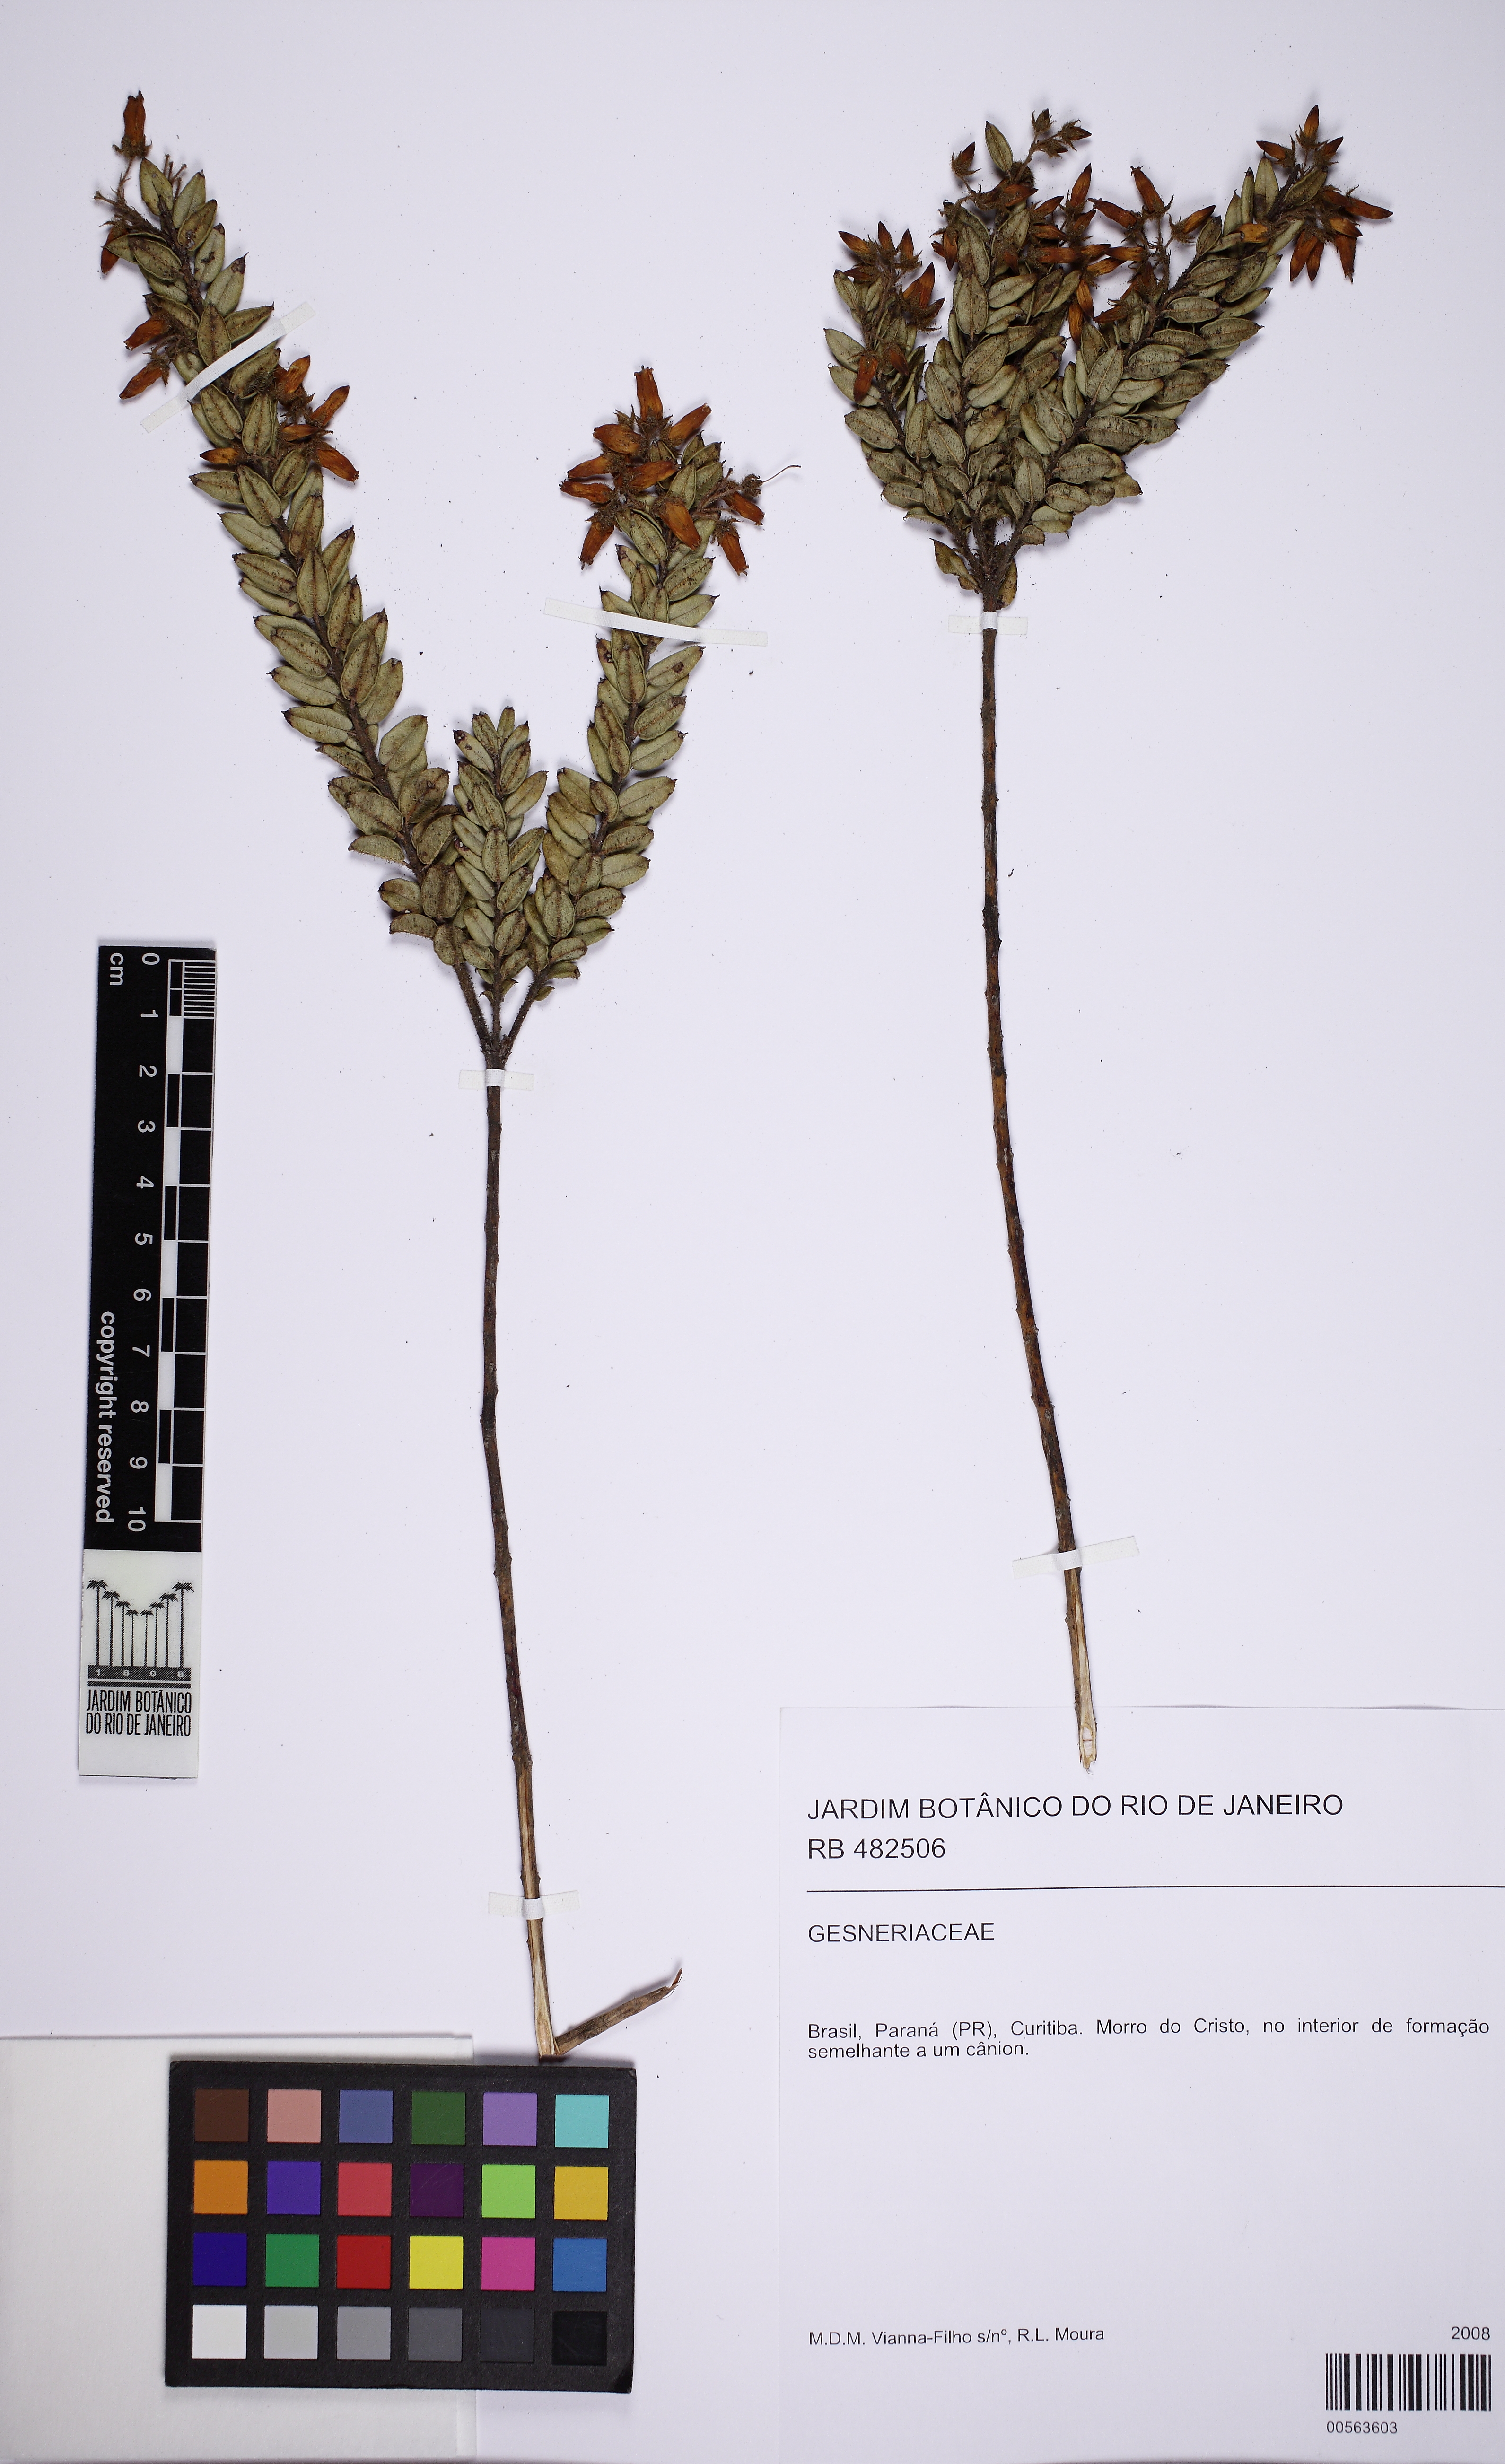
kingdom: Plantae
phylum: Tracheophyta
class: Magnoliopsida
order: Ericales
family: Ericaceae
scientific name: Ericaceae
